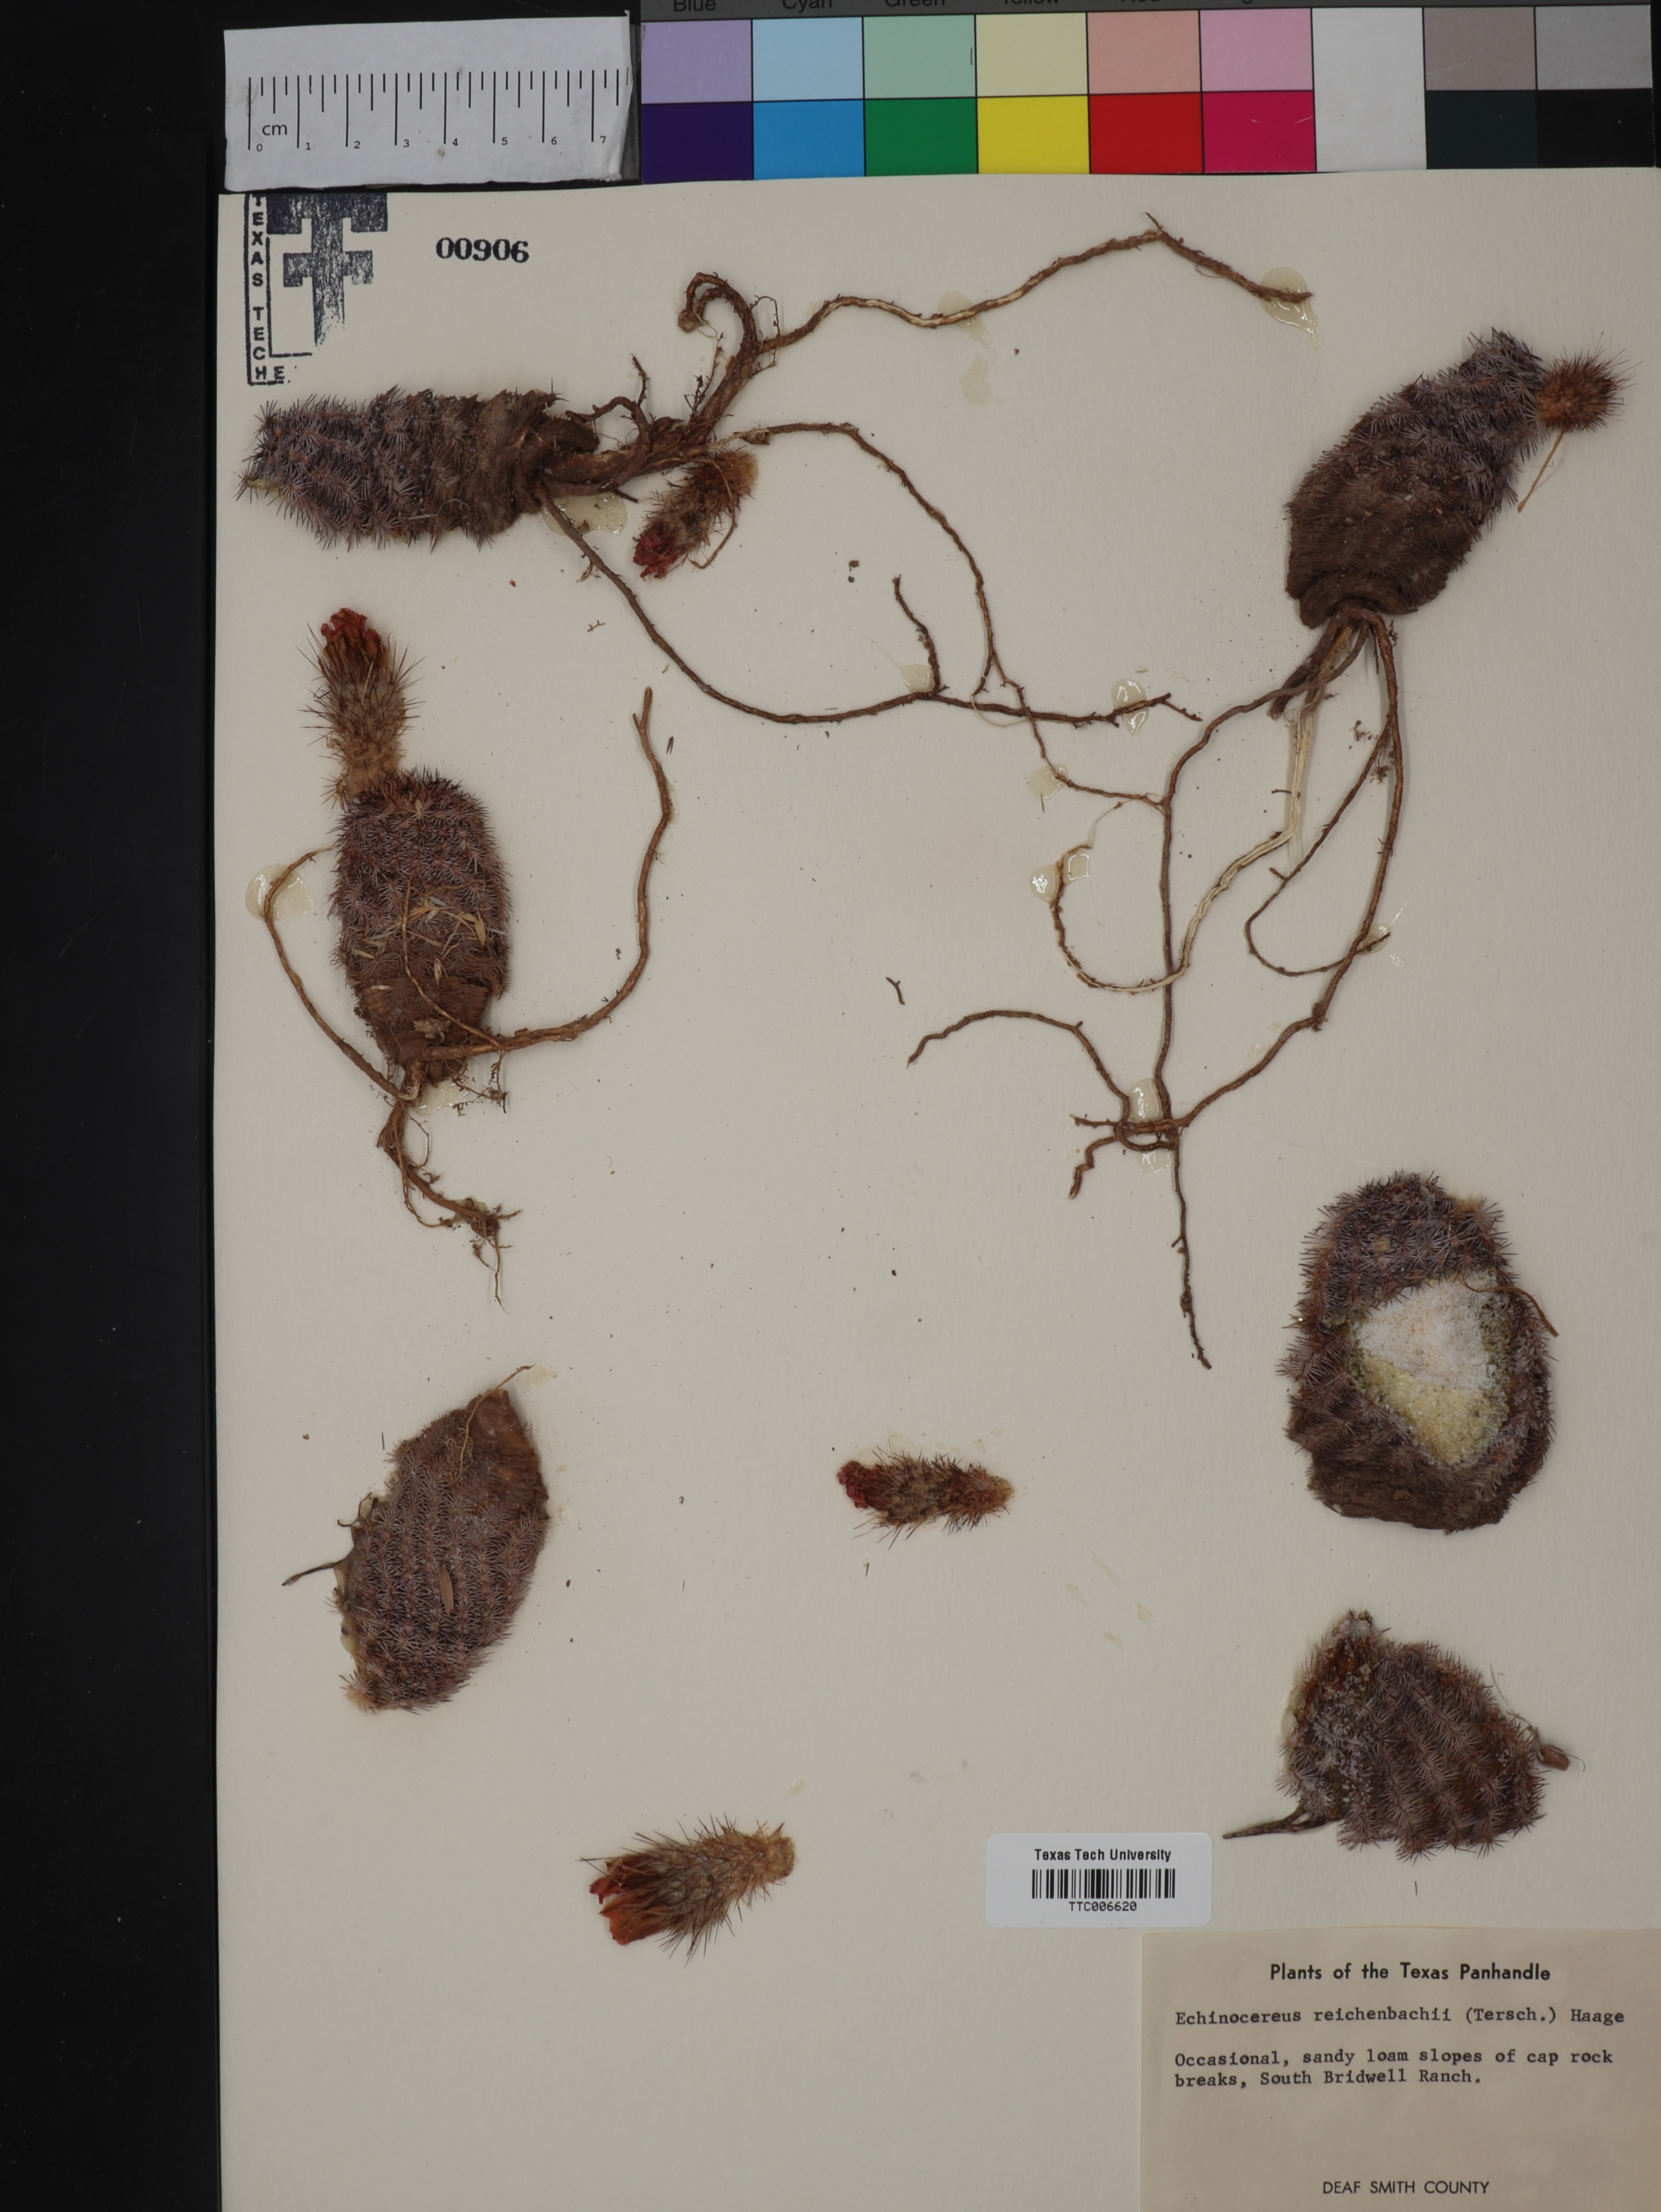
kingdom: Plantae
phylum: Tracheophyta
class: Magnoliopsida
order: Caryophyllales
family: Cactaceae
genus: Echinocereus
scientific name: Echinocereus reichenbachii
